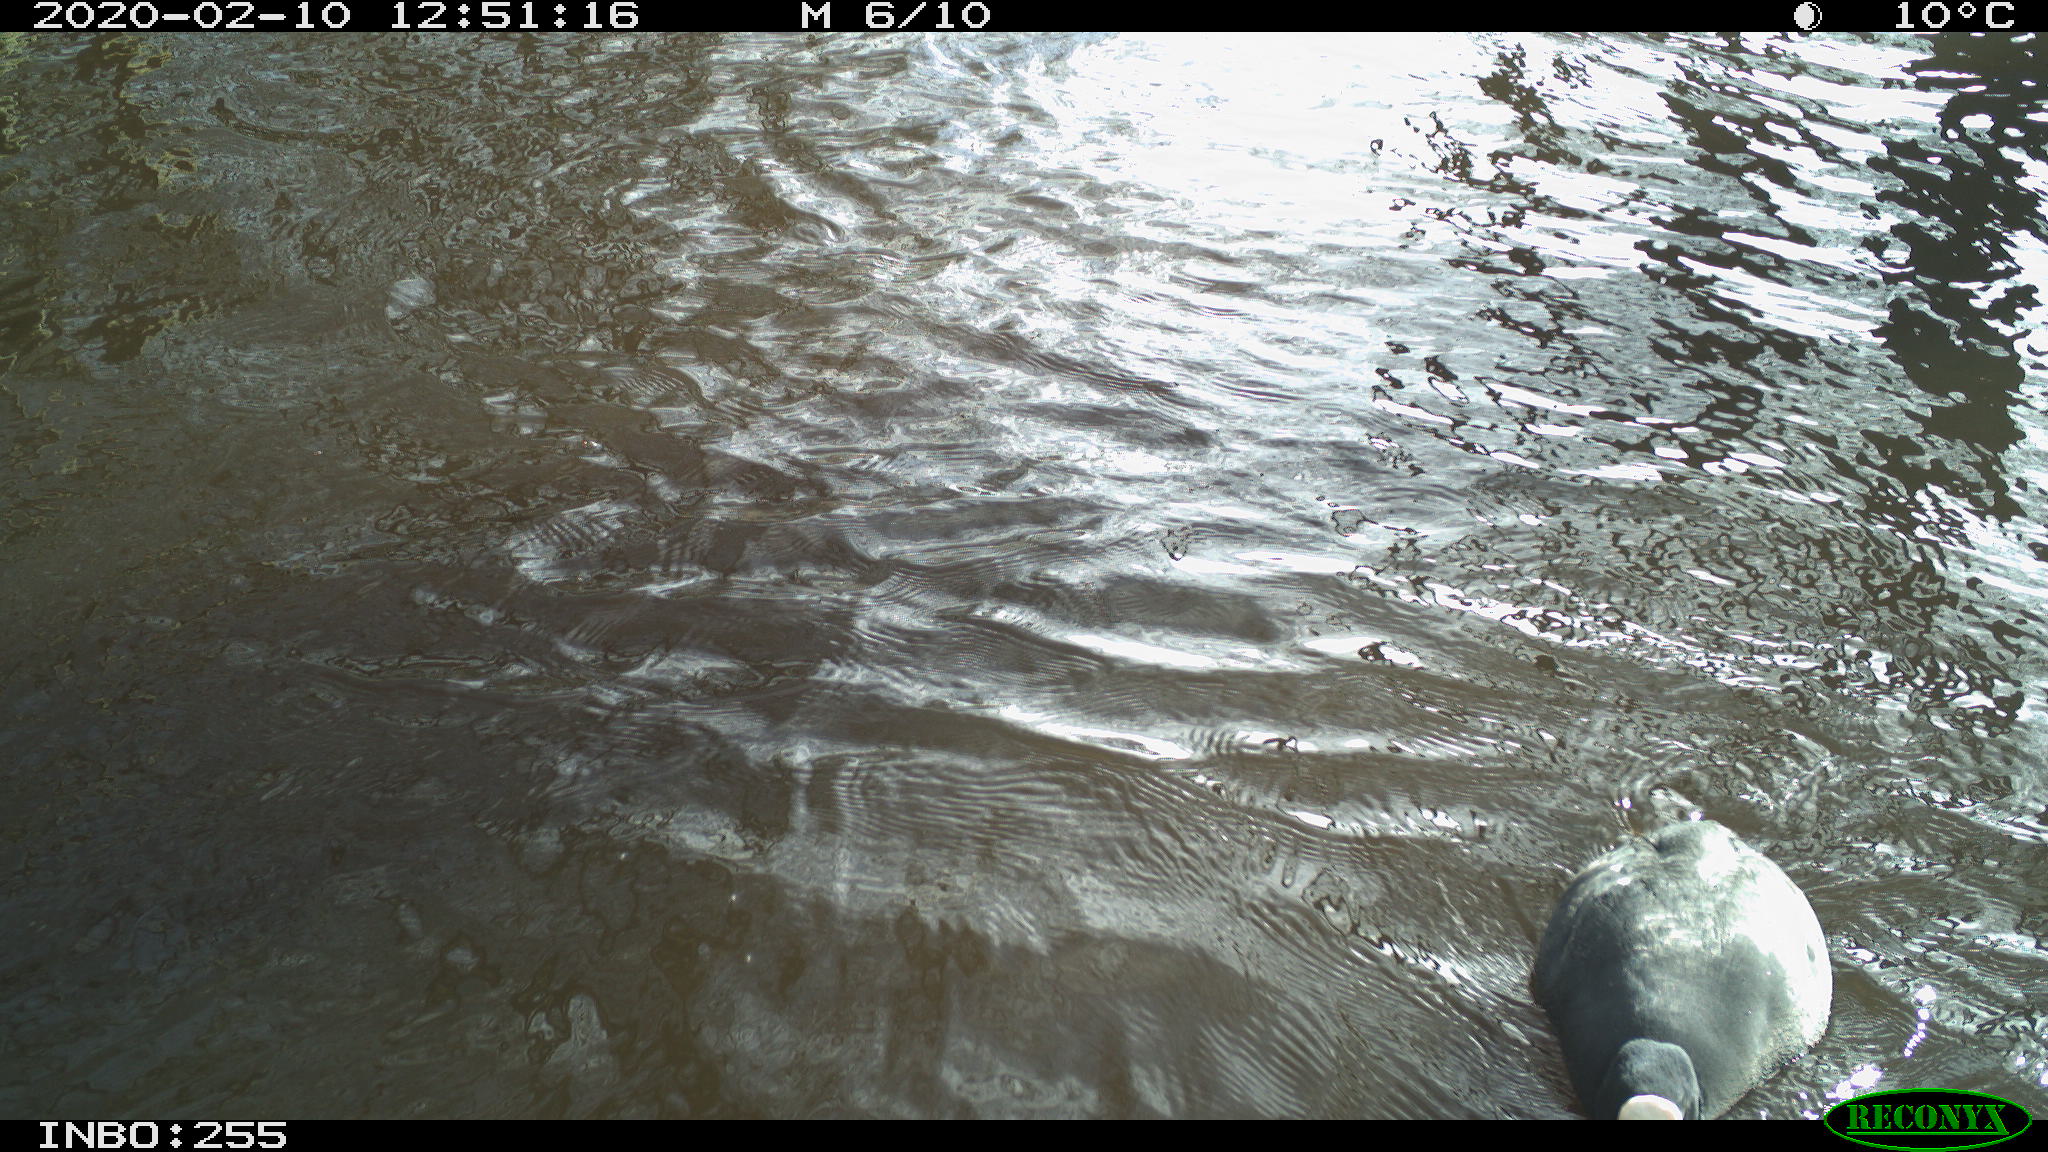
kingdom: Animalia
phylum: Chordata
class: Aves
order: Gruiformes
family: Rallidae
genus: Fulica
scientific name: Fulica atra
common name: Eurasian coot
